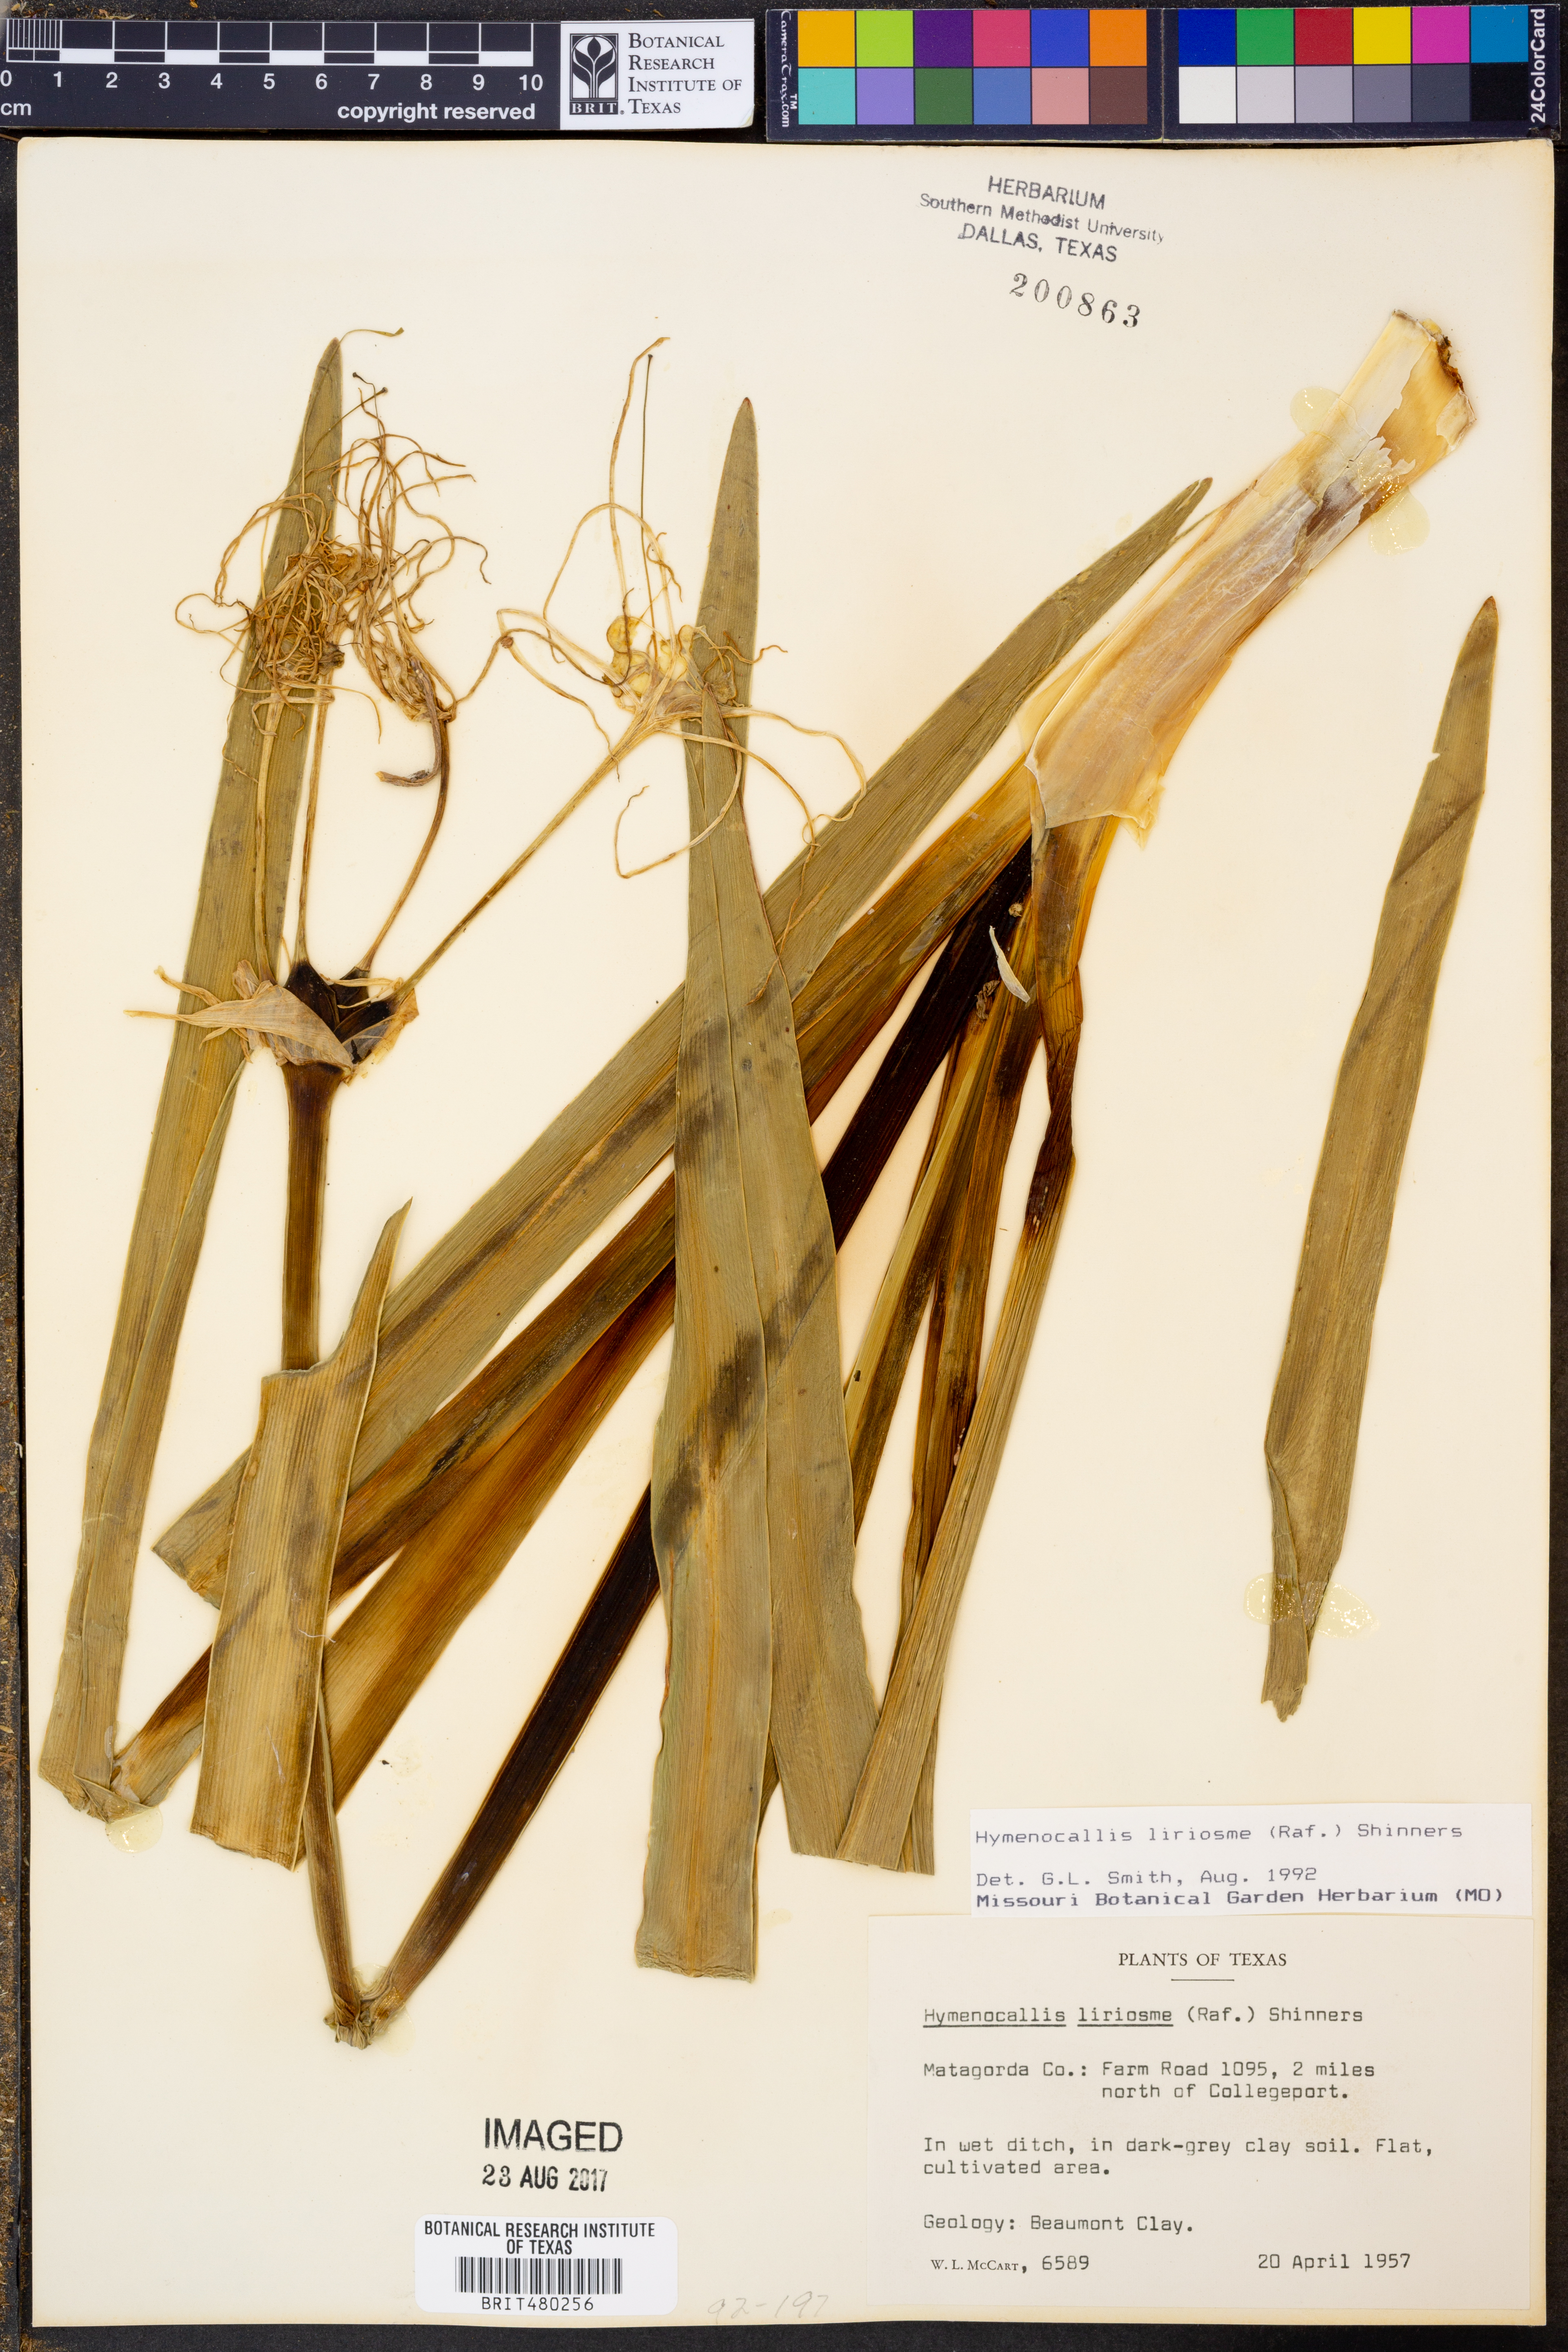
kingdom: Plantae
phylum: Tracheophyta
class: Liliopsida
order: Asparagales
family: Amaryllidaceae
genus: Hymenocallis
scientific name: Hymenocallis liriosme
